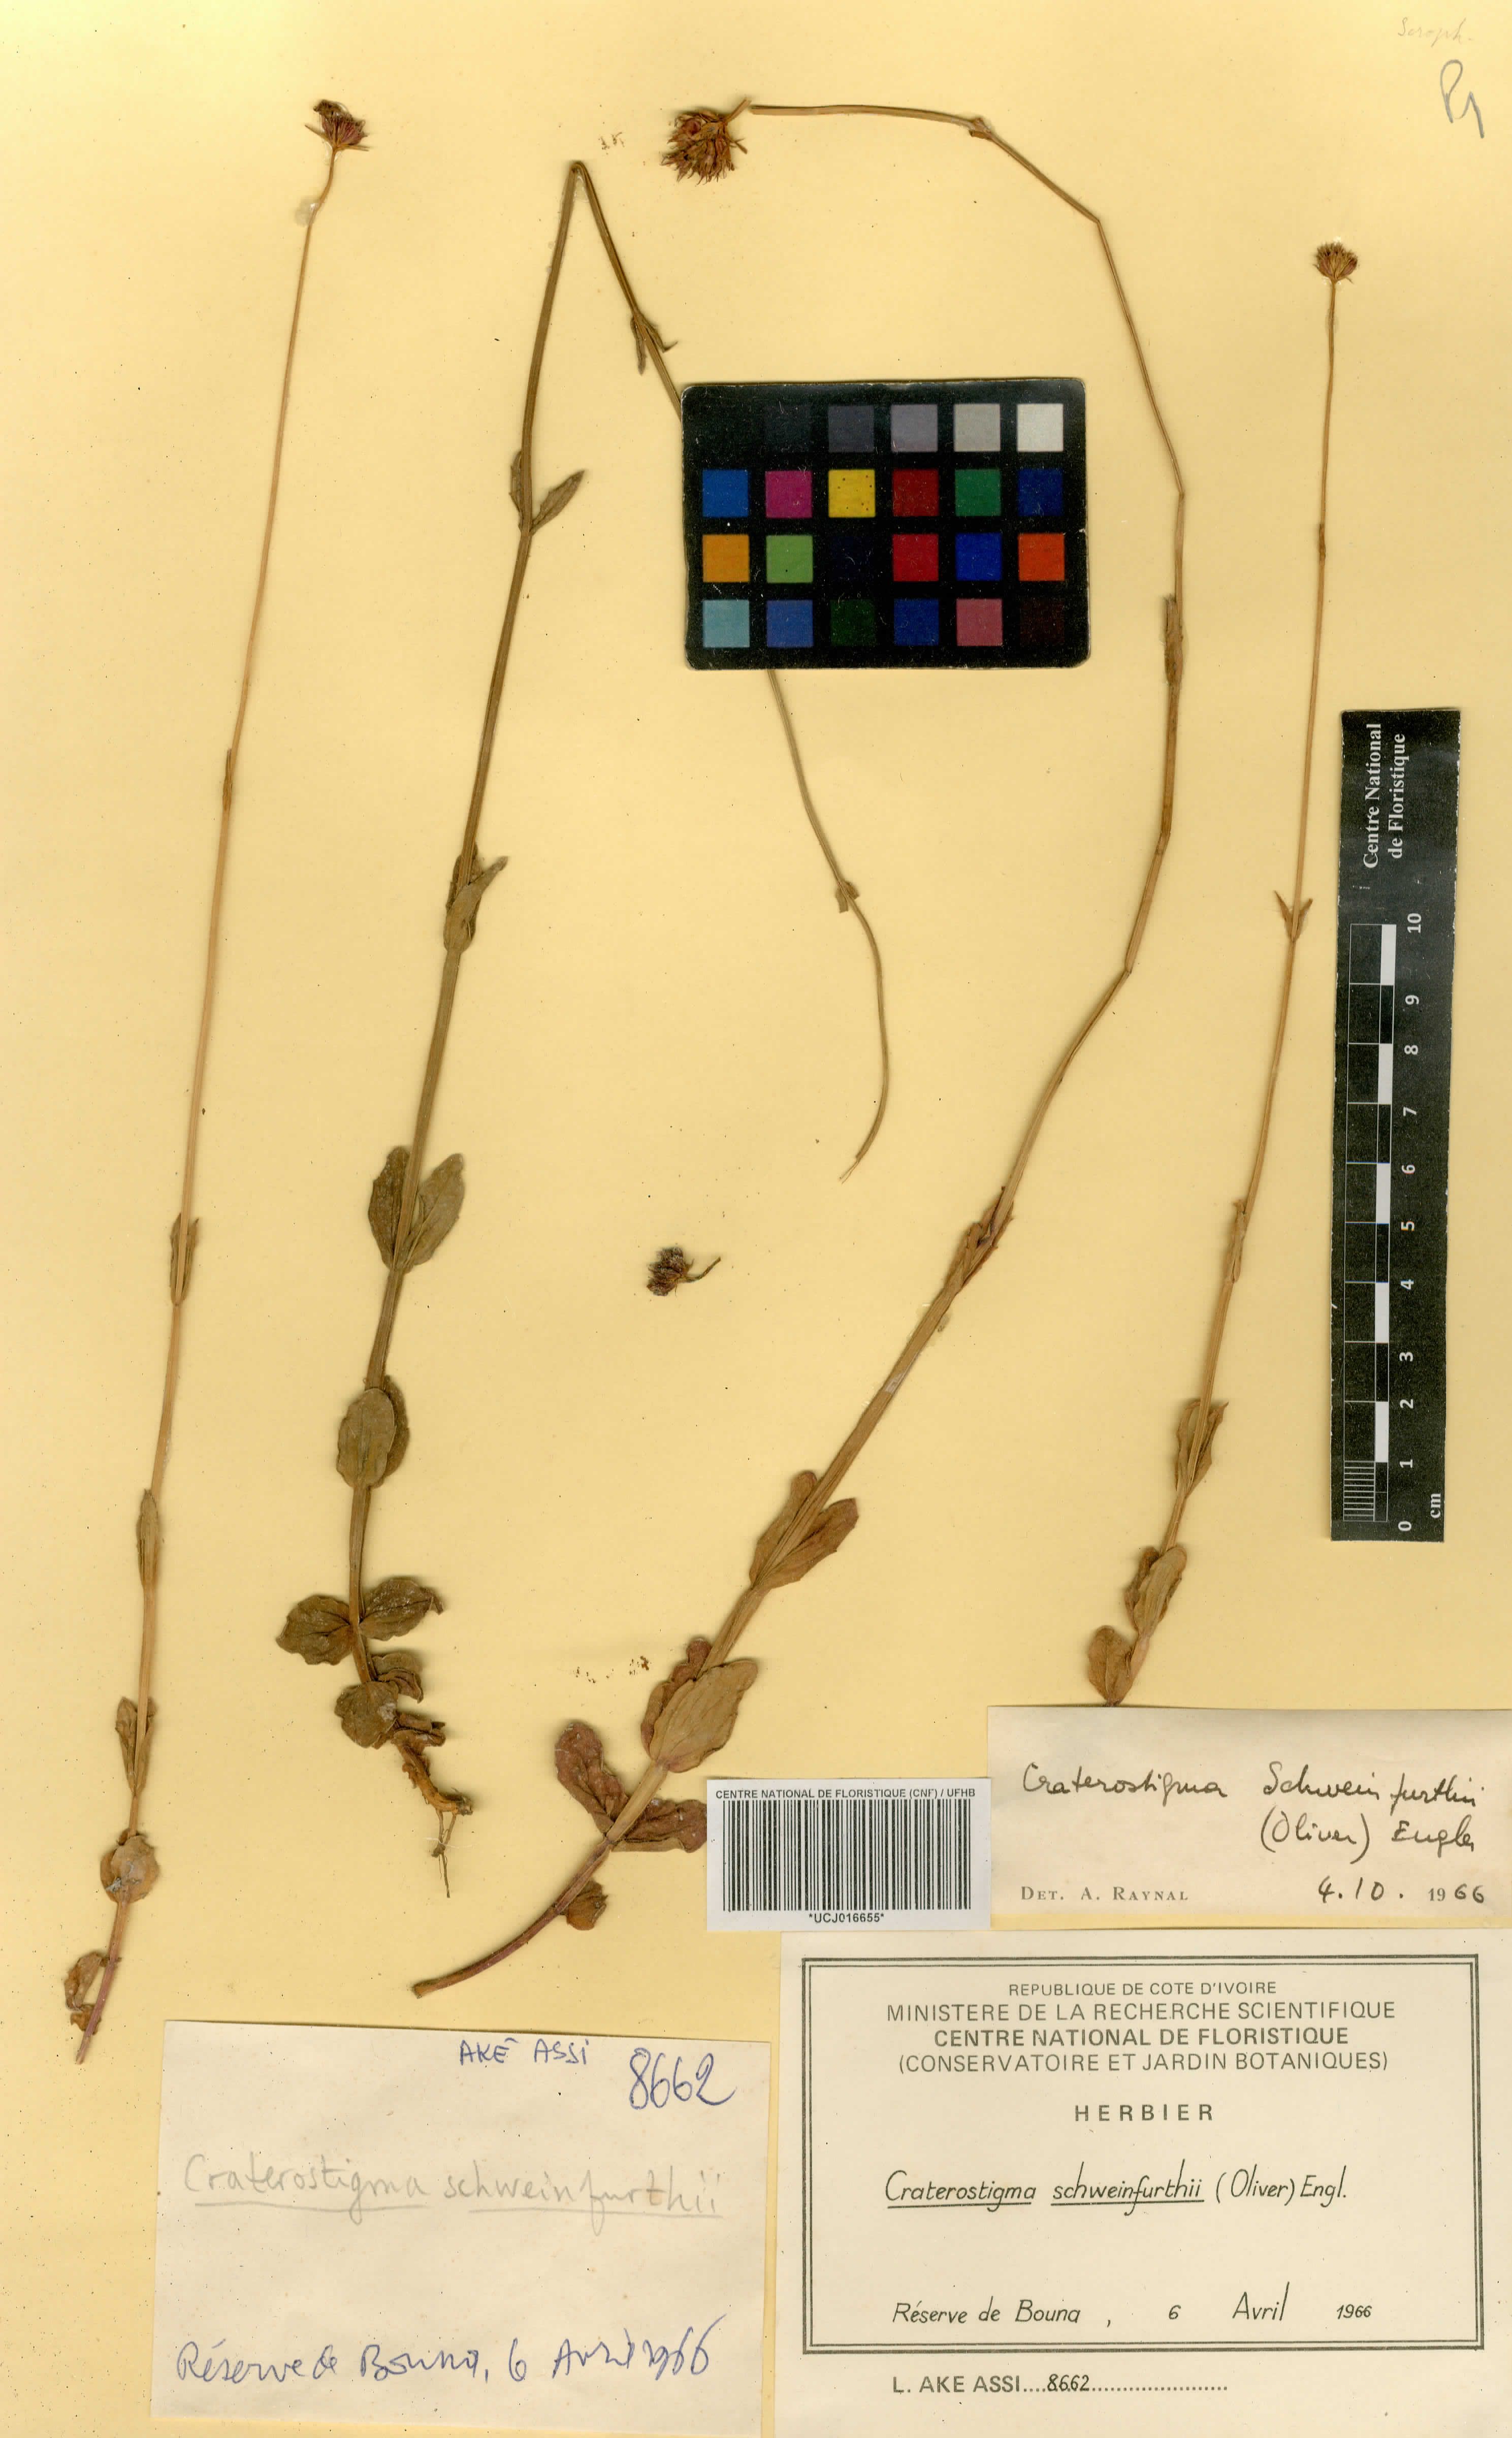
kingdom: Plantae
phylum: Tracheophyta
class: Magnoliopsida
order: Lamiales
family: Linderniaceae
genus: Crepidorhopalon
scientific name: Crepidorhopalon schweinfurthii
